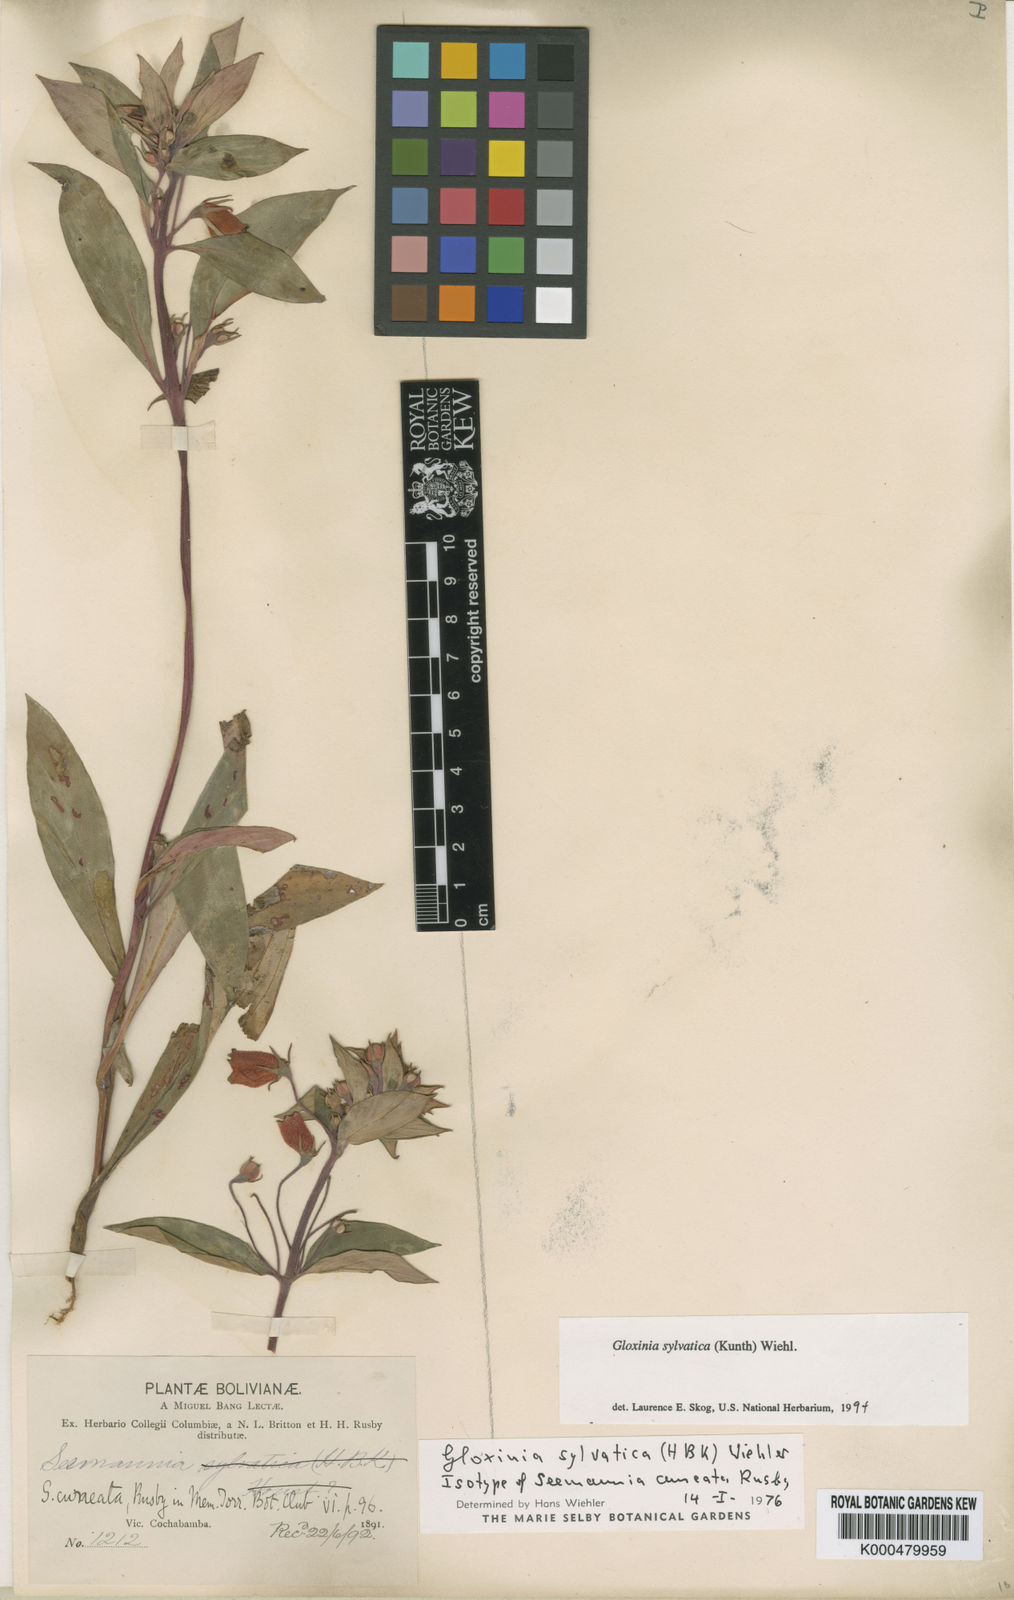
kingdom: Plantae
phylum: Tracheophyta
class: Magnoliopsida
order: Lamiales
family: Gesneriaceae
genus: Seemannia
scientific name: Seemannia sylvatica
